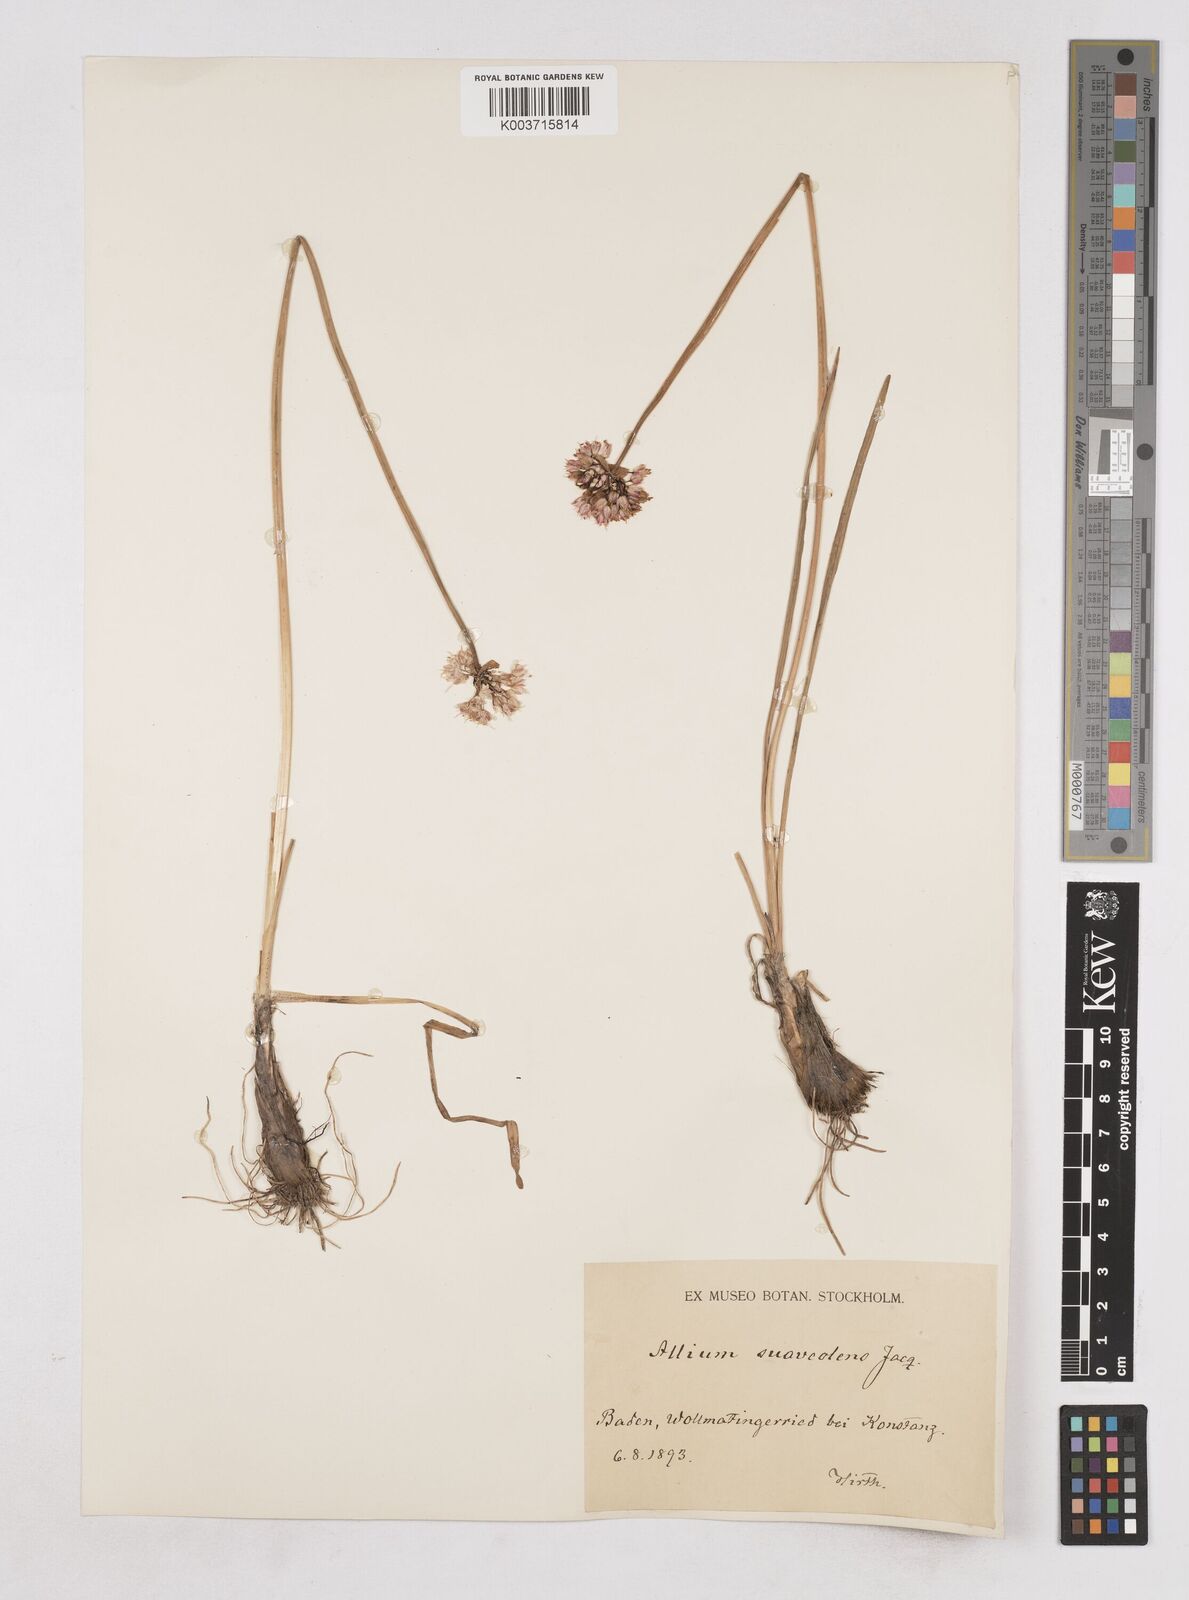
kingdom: Plantae
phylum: Tracheophyta
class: Liliopsida
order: Asparagales
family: Amaryllidaceae
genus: Allium
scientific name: Allium suaveolens
